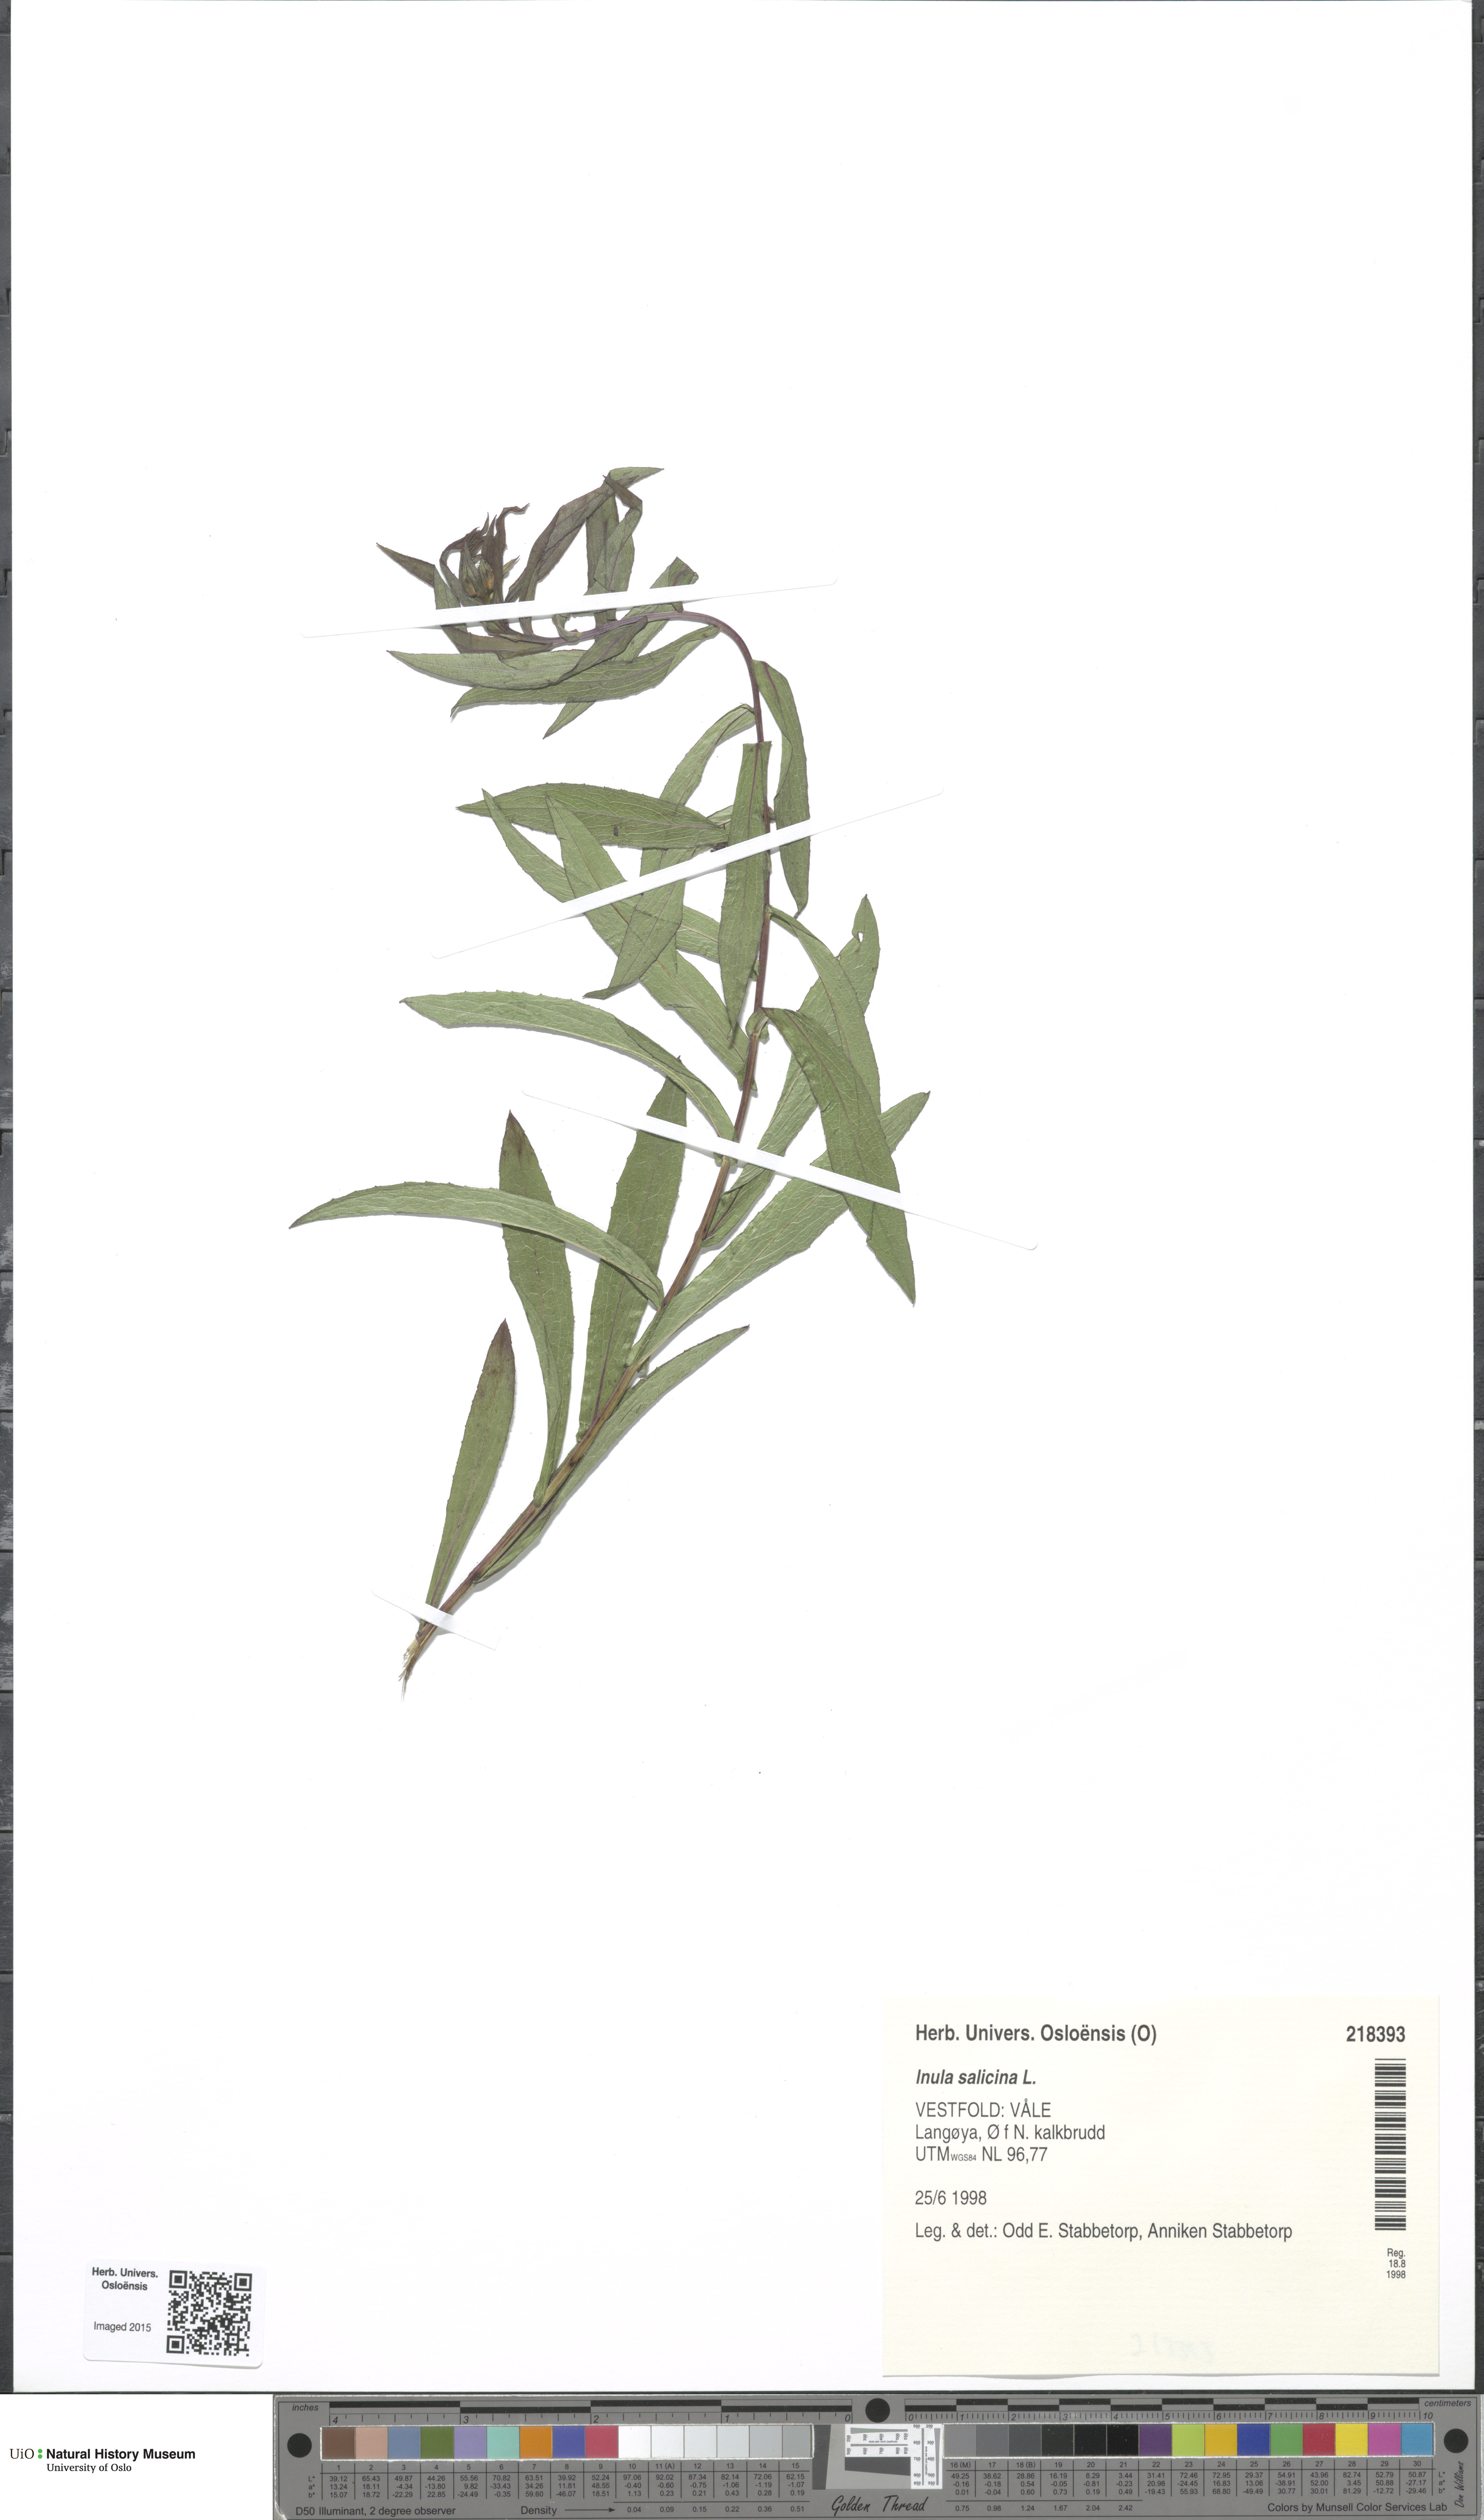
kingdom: Plantae
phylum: Tracheophyta
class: Magnoliopsida
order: Asterales
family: Asteraceae
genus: Pentanema
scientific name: Pentanema salicinum
